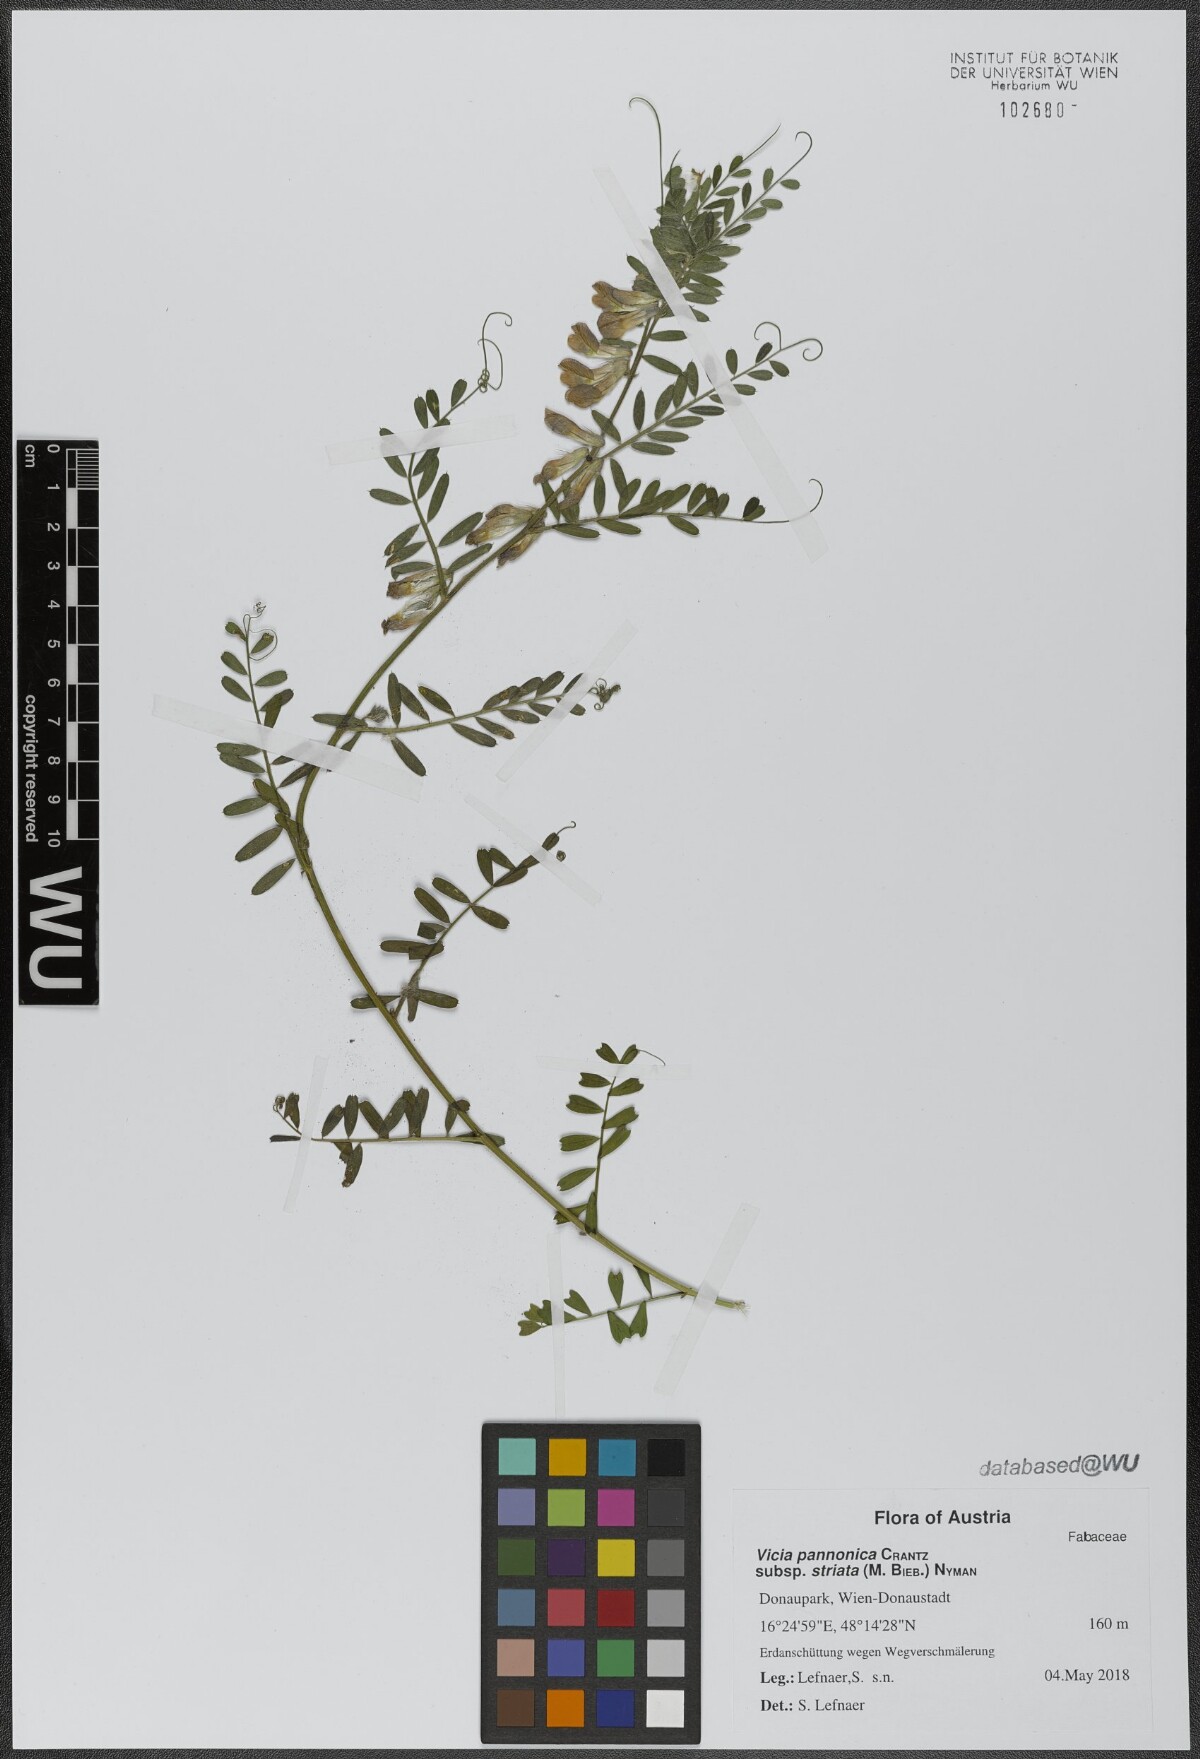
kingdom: Plantae
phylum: Tracheophyta
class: Magnoliopsida
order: Fabales
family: Fabaceae
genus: Vicia
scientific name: Vicia pannonica
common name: Hungarian vetch
